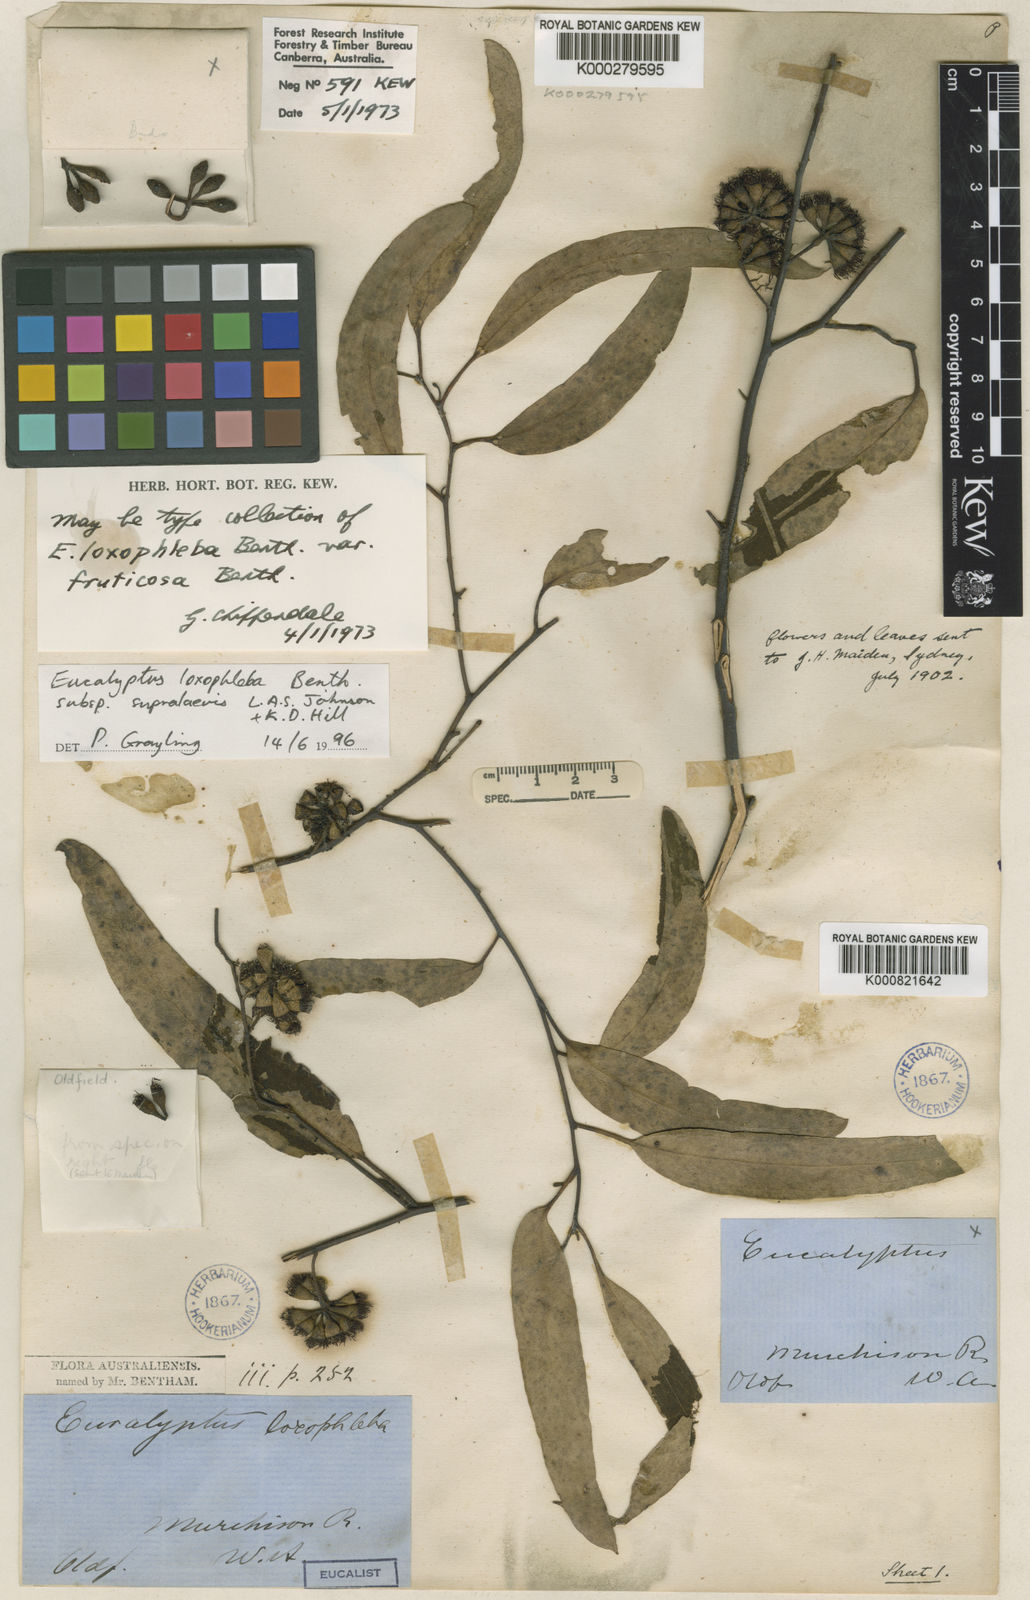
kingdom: Plantae
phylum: Tracheophyta
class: Magnoliopsida
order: Myrtales
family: Myrtaceae
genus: Eucalyptus
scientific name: Eucalyptus loxophleba
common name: York gum
